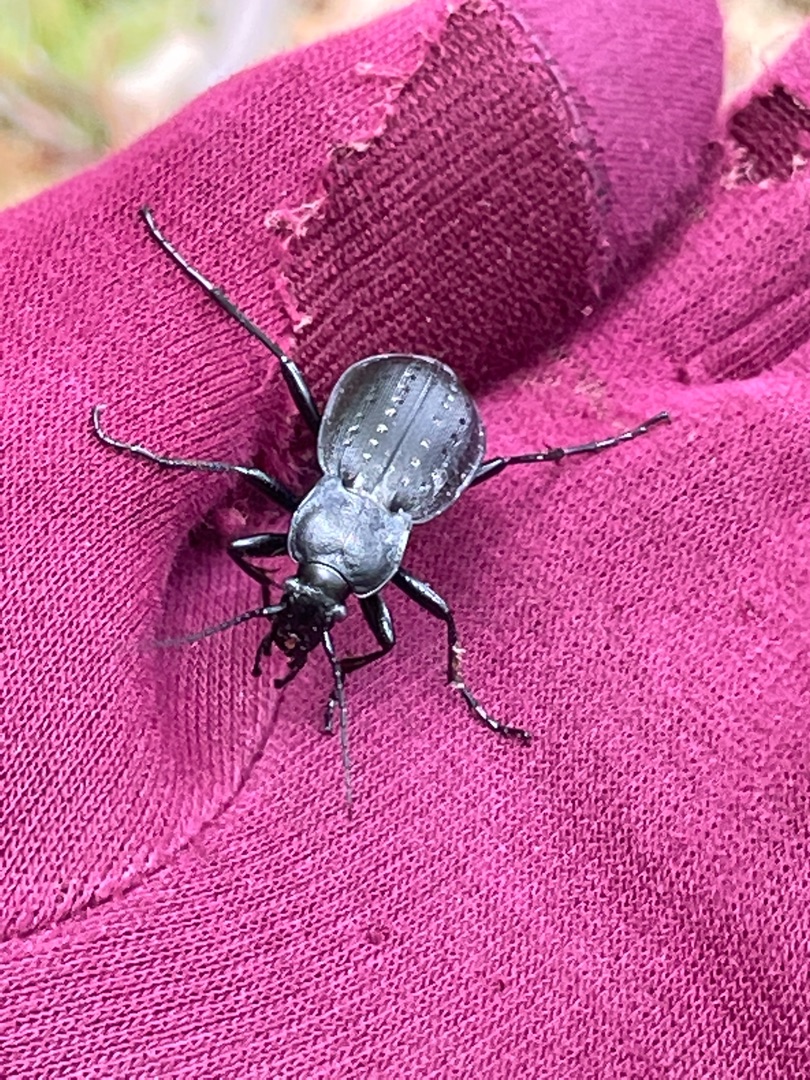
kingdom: Animalia
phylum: Arthropoda
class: Insecta
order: Coleoptera
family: Carabidae
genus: Carabus
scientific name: Carabus hortensis
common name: Guldpletløber
